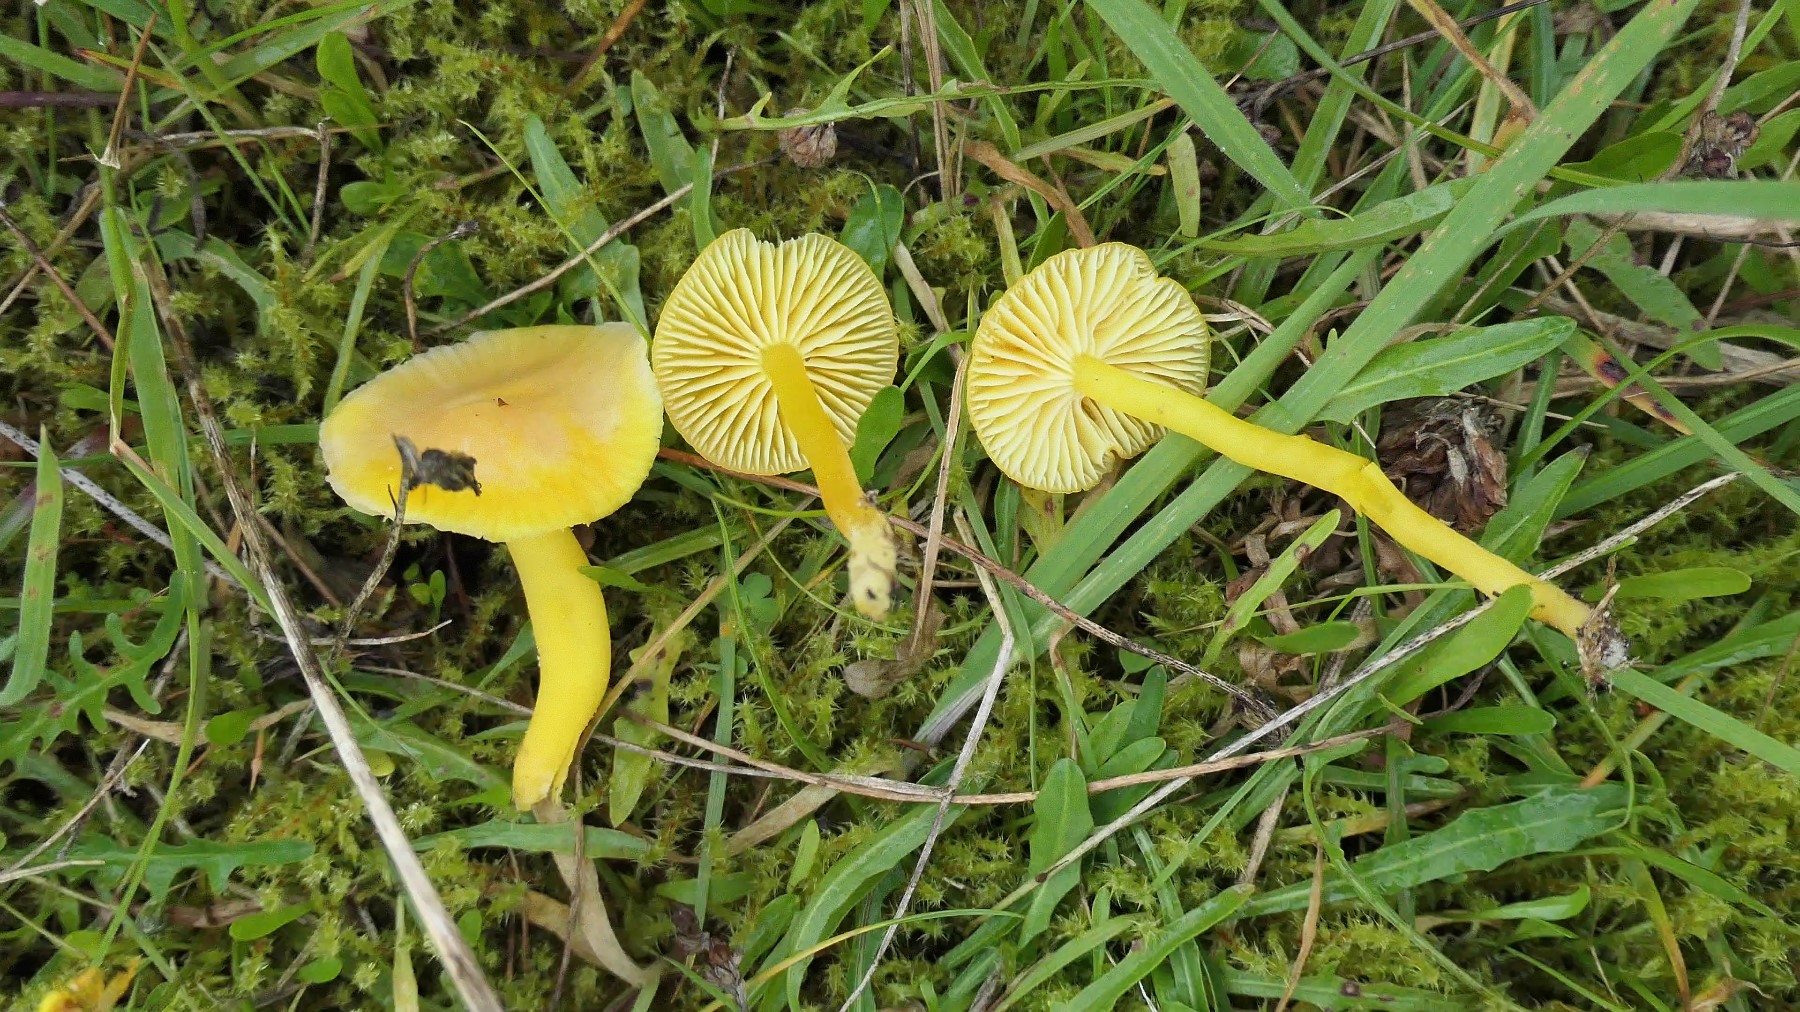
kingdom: Fungi
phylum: Basidiomycota
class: Agaricomycetes
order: Agaricales
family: Hygrophoraceae
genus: Hygrocybe
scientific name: Hygrocybe ceracea
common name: voksgul vokshat
